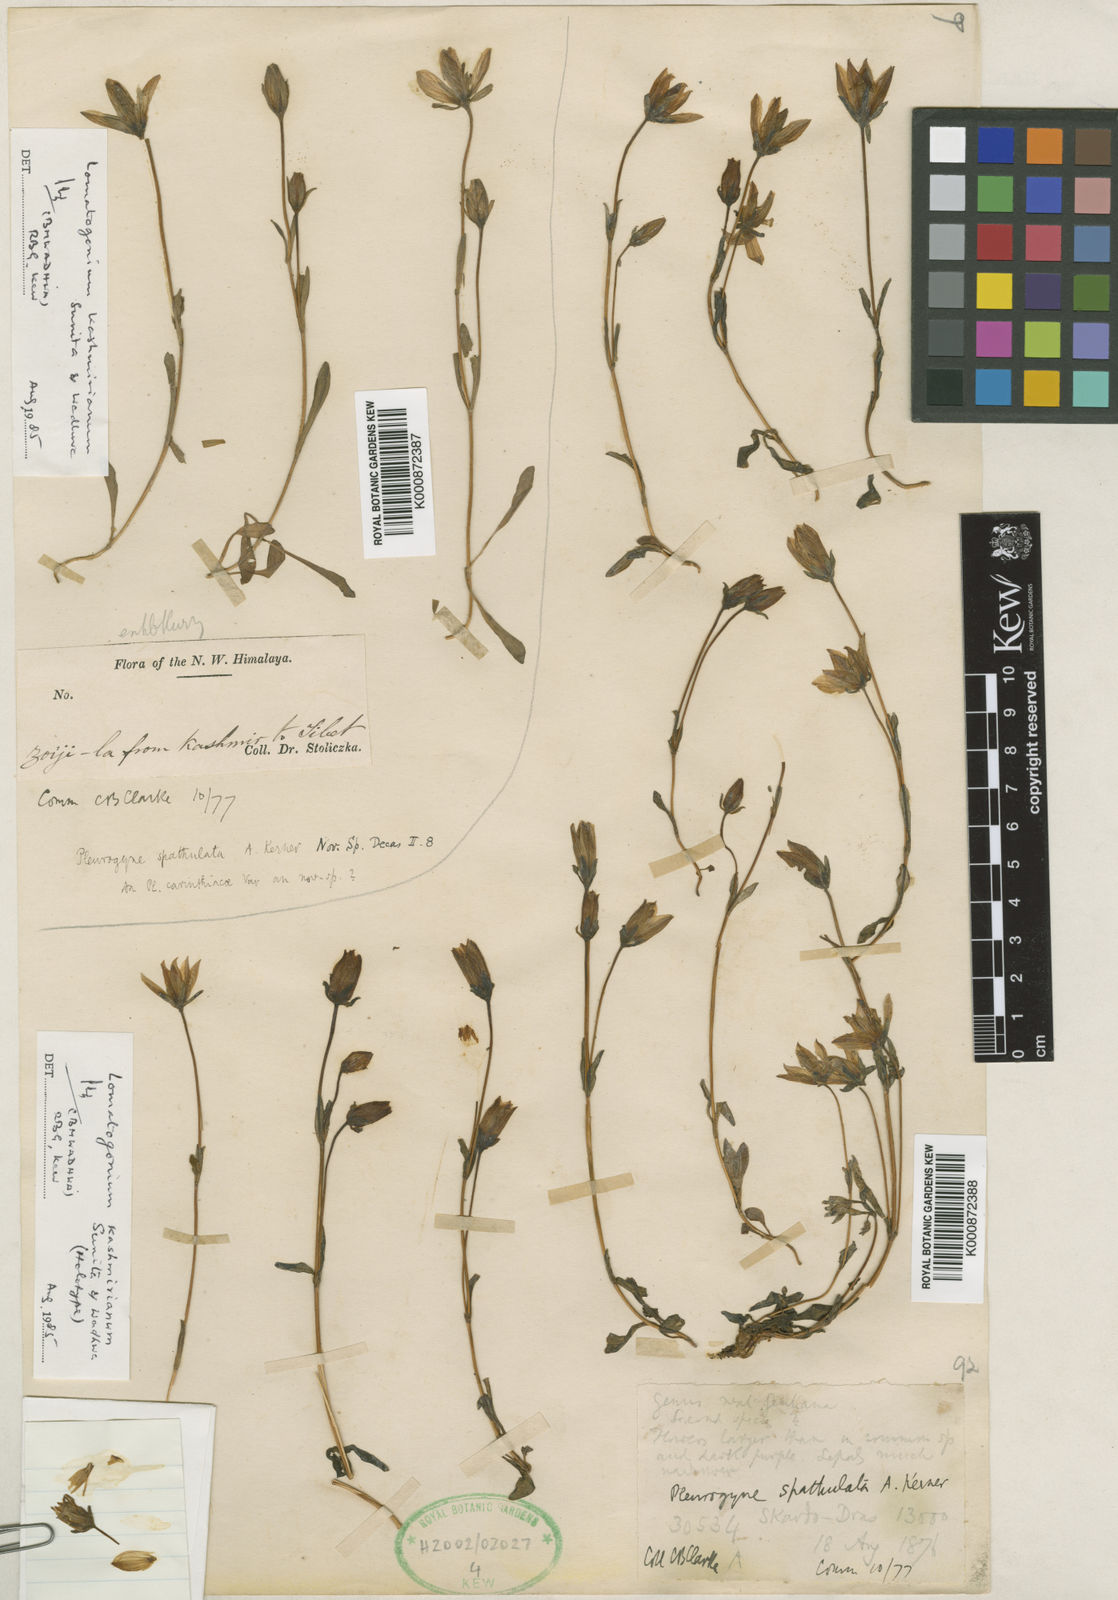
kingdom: Plantae
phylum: Tracheophyta
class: Magnoliopsida
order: Gentianales
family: Gentianaceae
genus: Lomatogonium
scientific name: Lomatogonium
